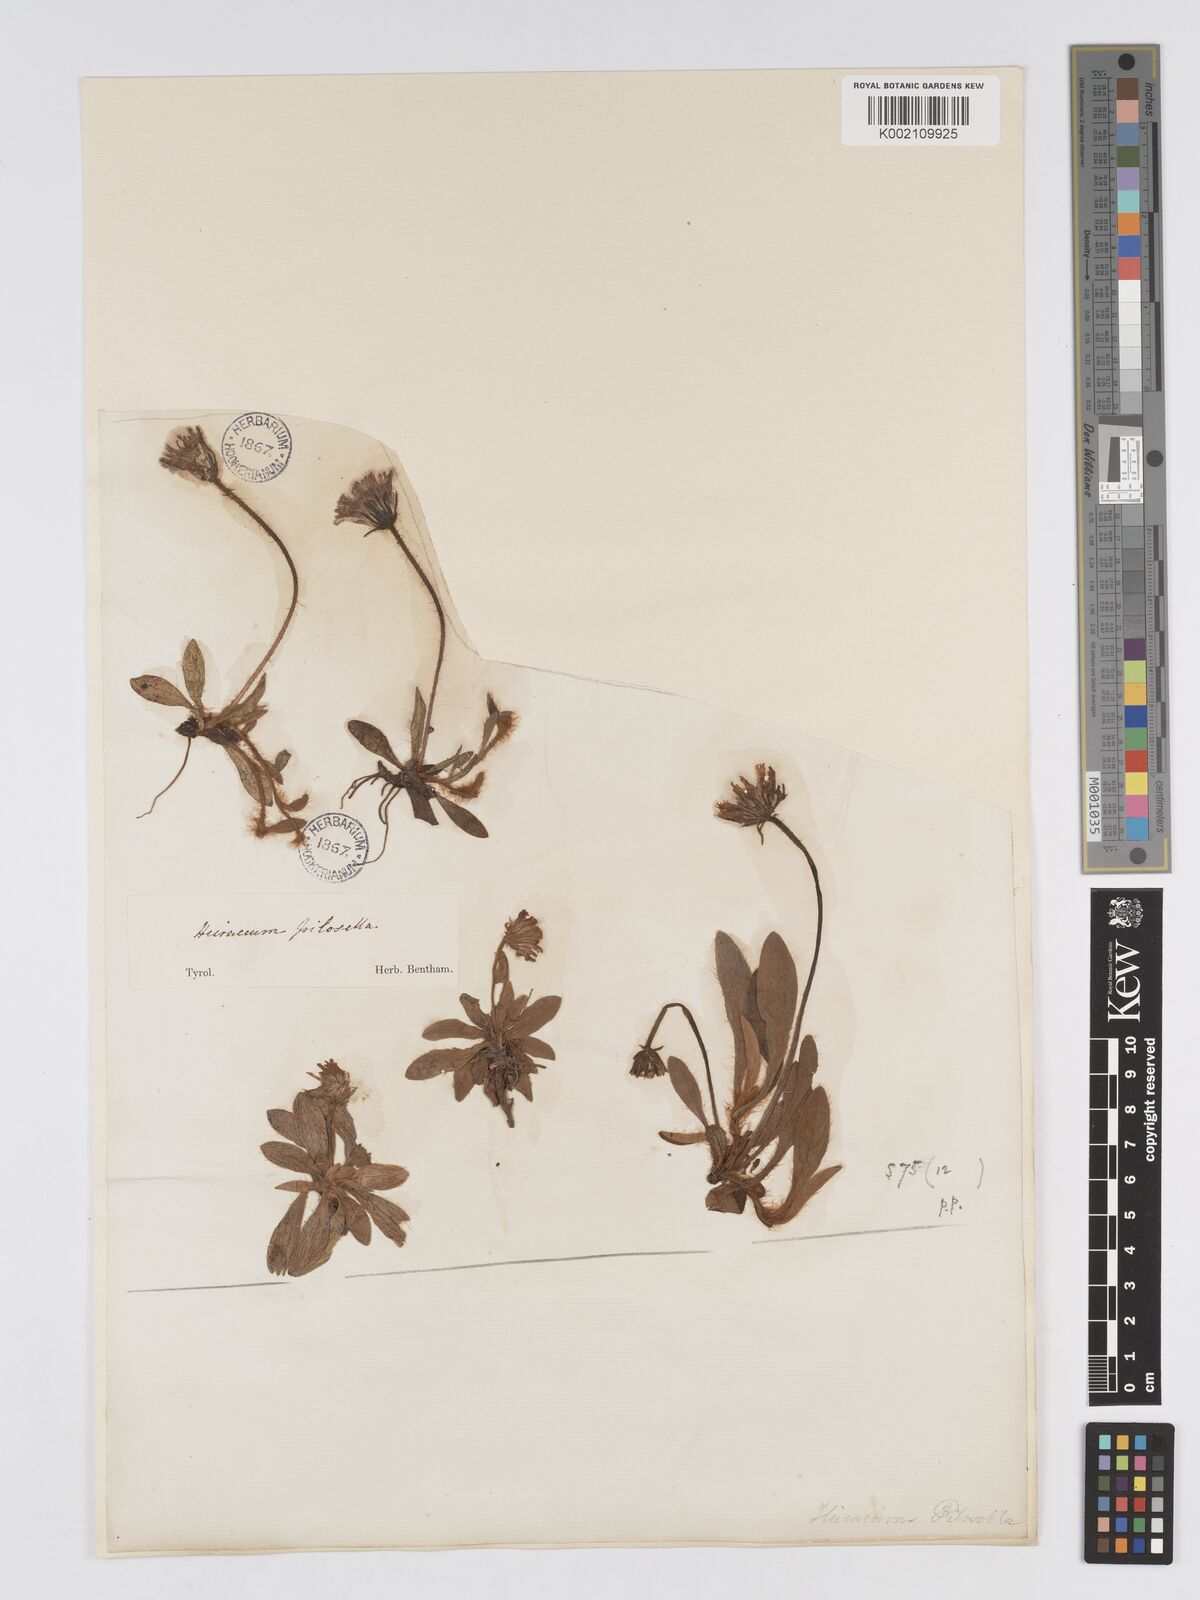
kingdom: Plantae
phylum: Tracheophyta
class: Magnoliopsida
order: Asterales
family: Asteraceae
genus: Pilosella
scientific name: Pilosella hoppeana
